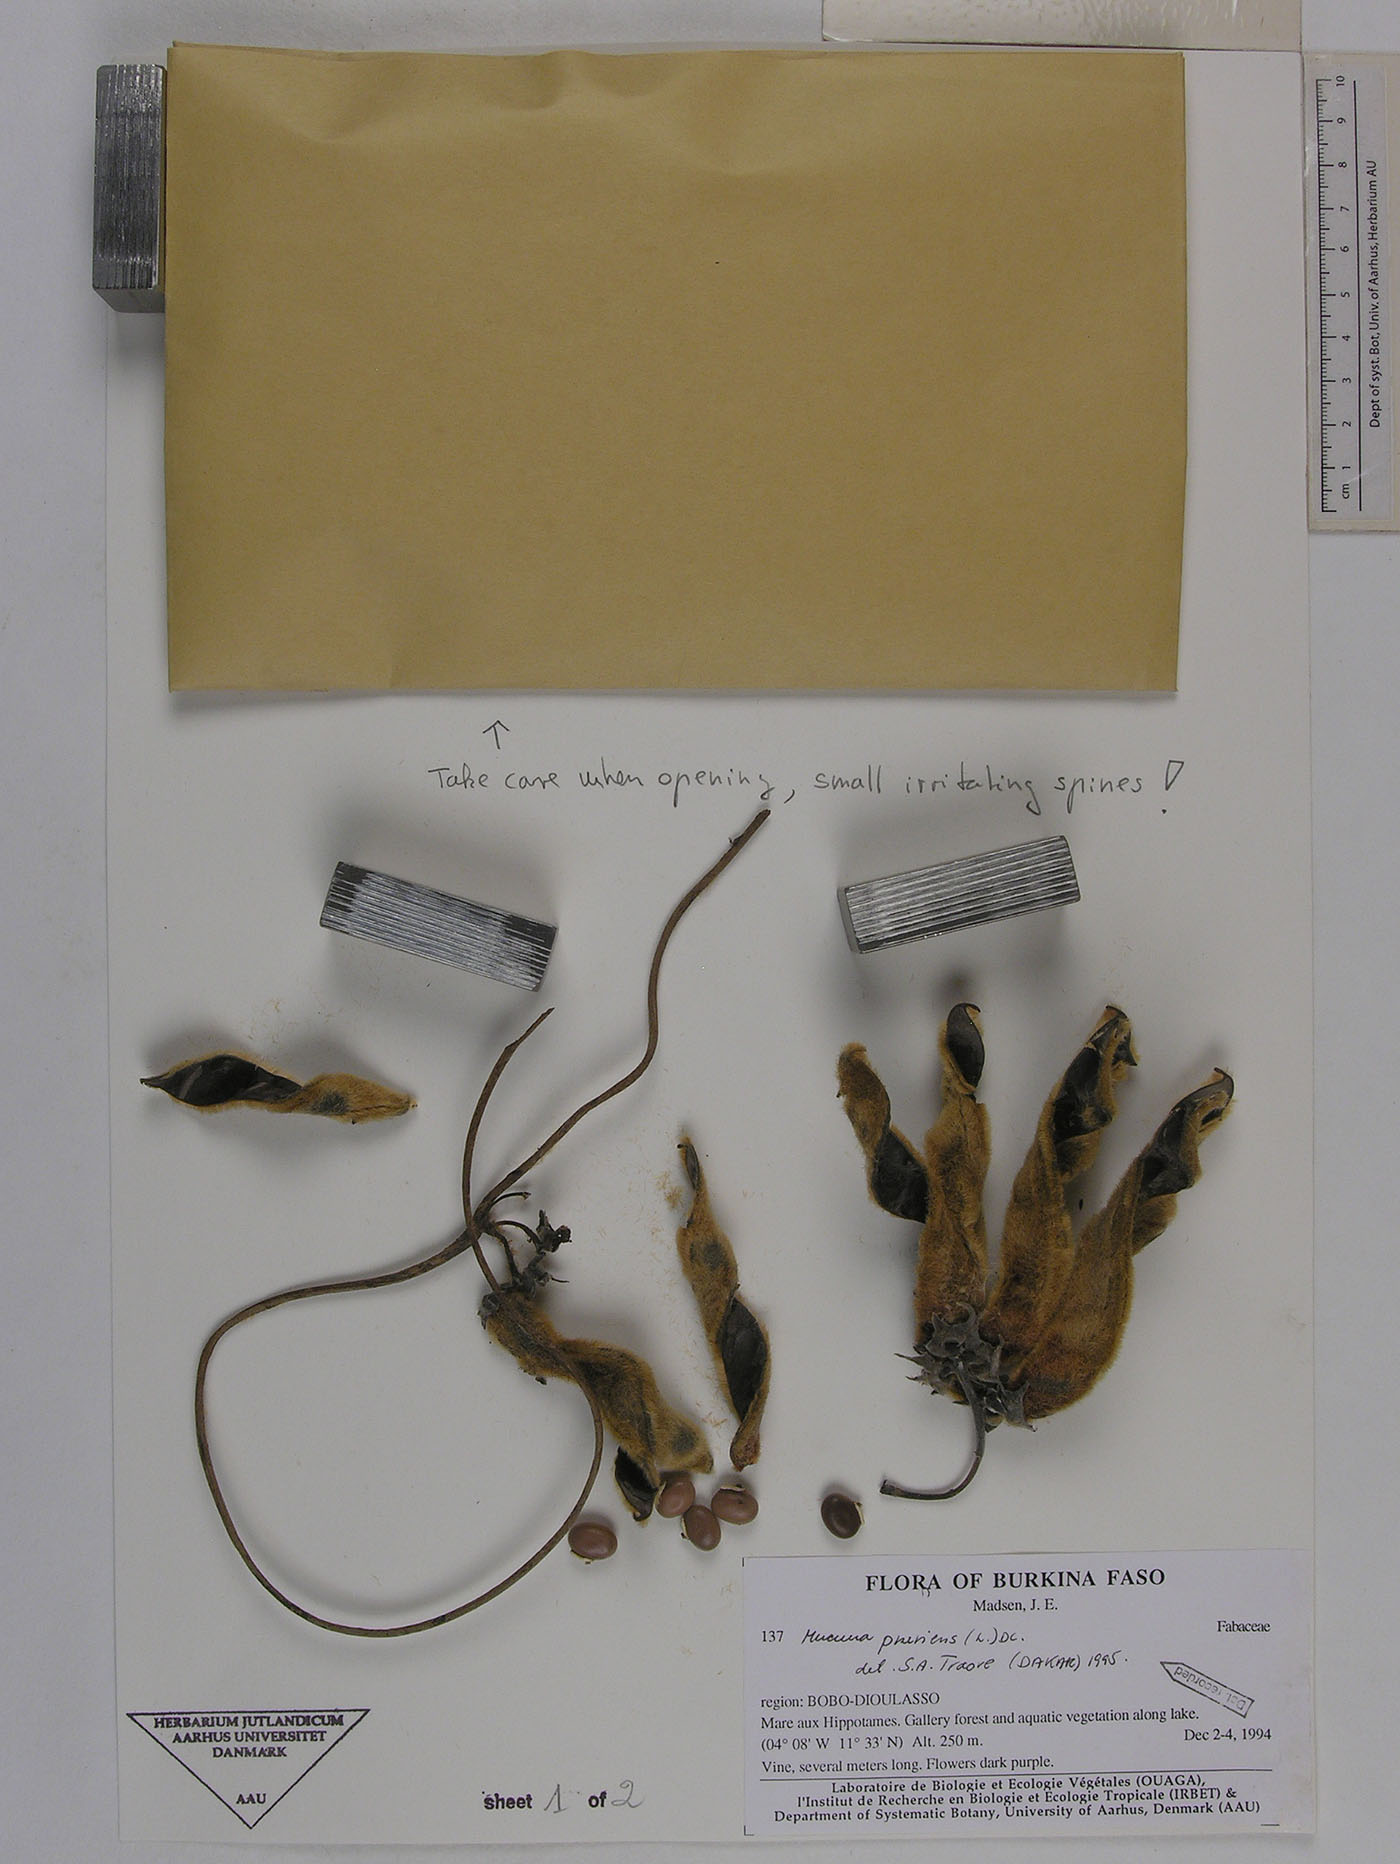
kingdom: Plantae
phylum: Tracheophyta
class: Magnoliopsida
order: Fabales
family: Fabaceae
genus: Mucuna
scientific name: Mucuna pruriens
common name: Cow-itch
